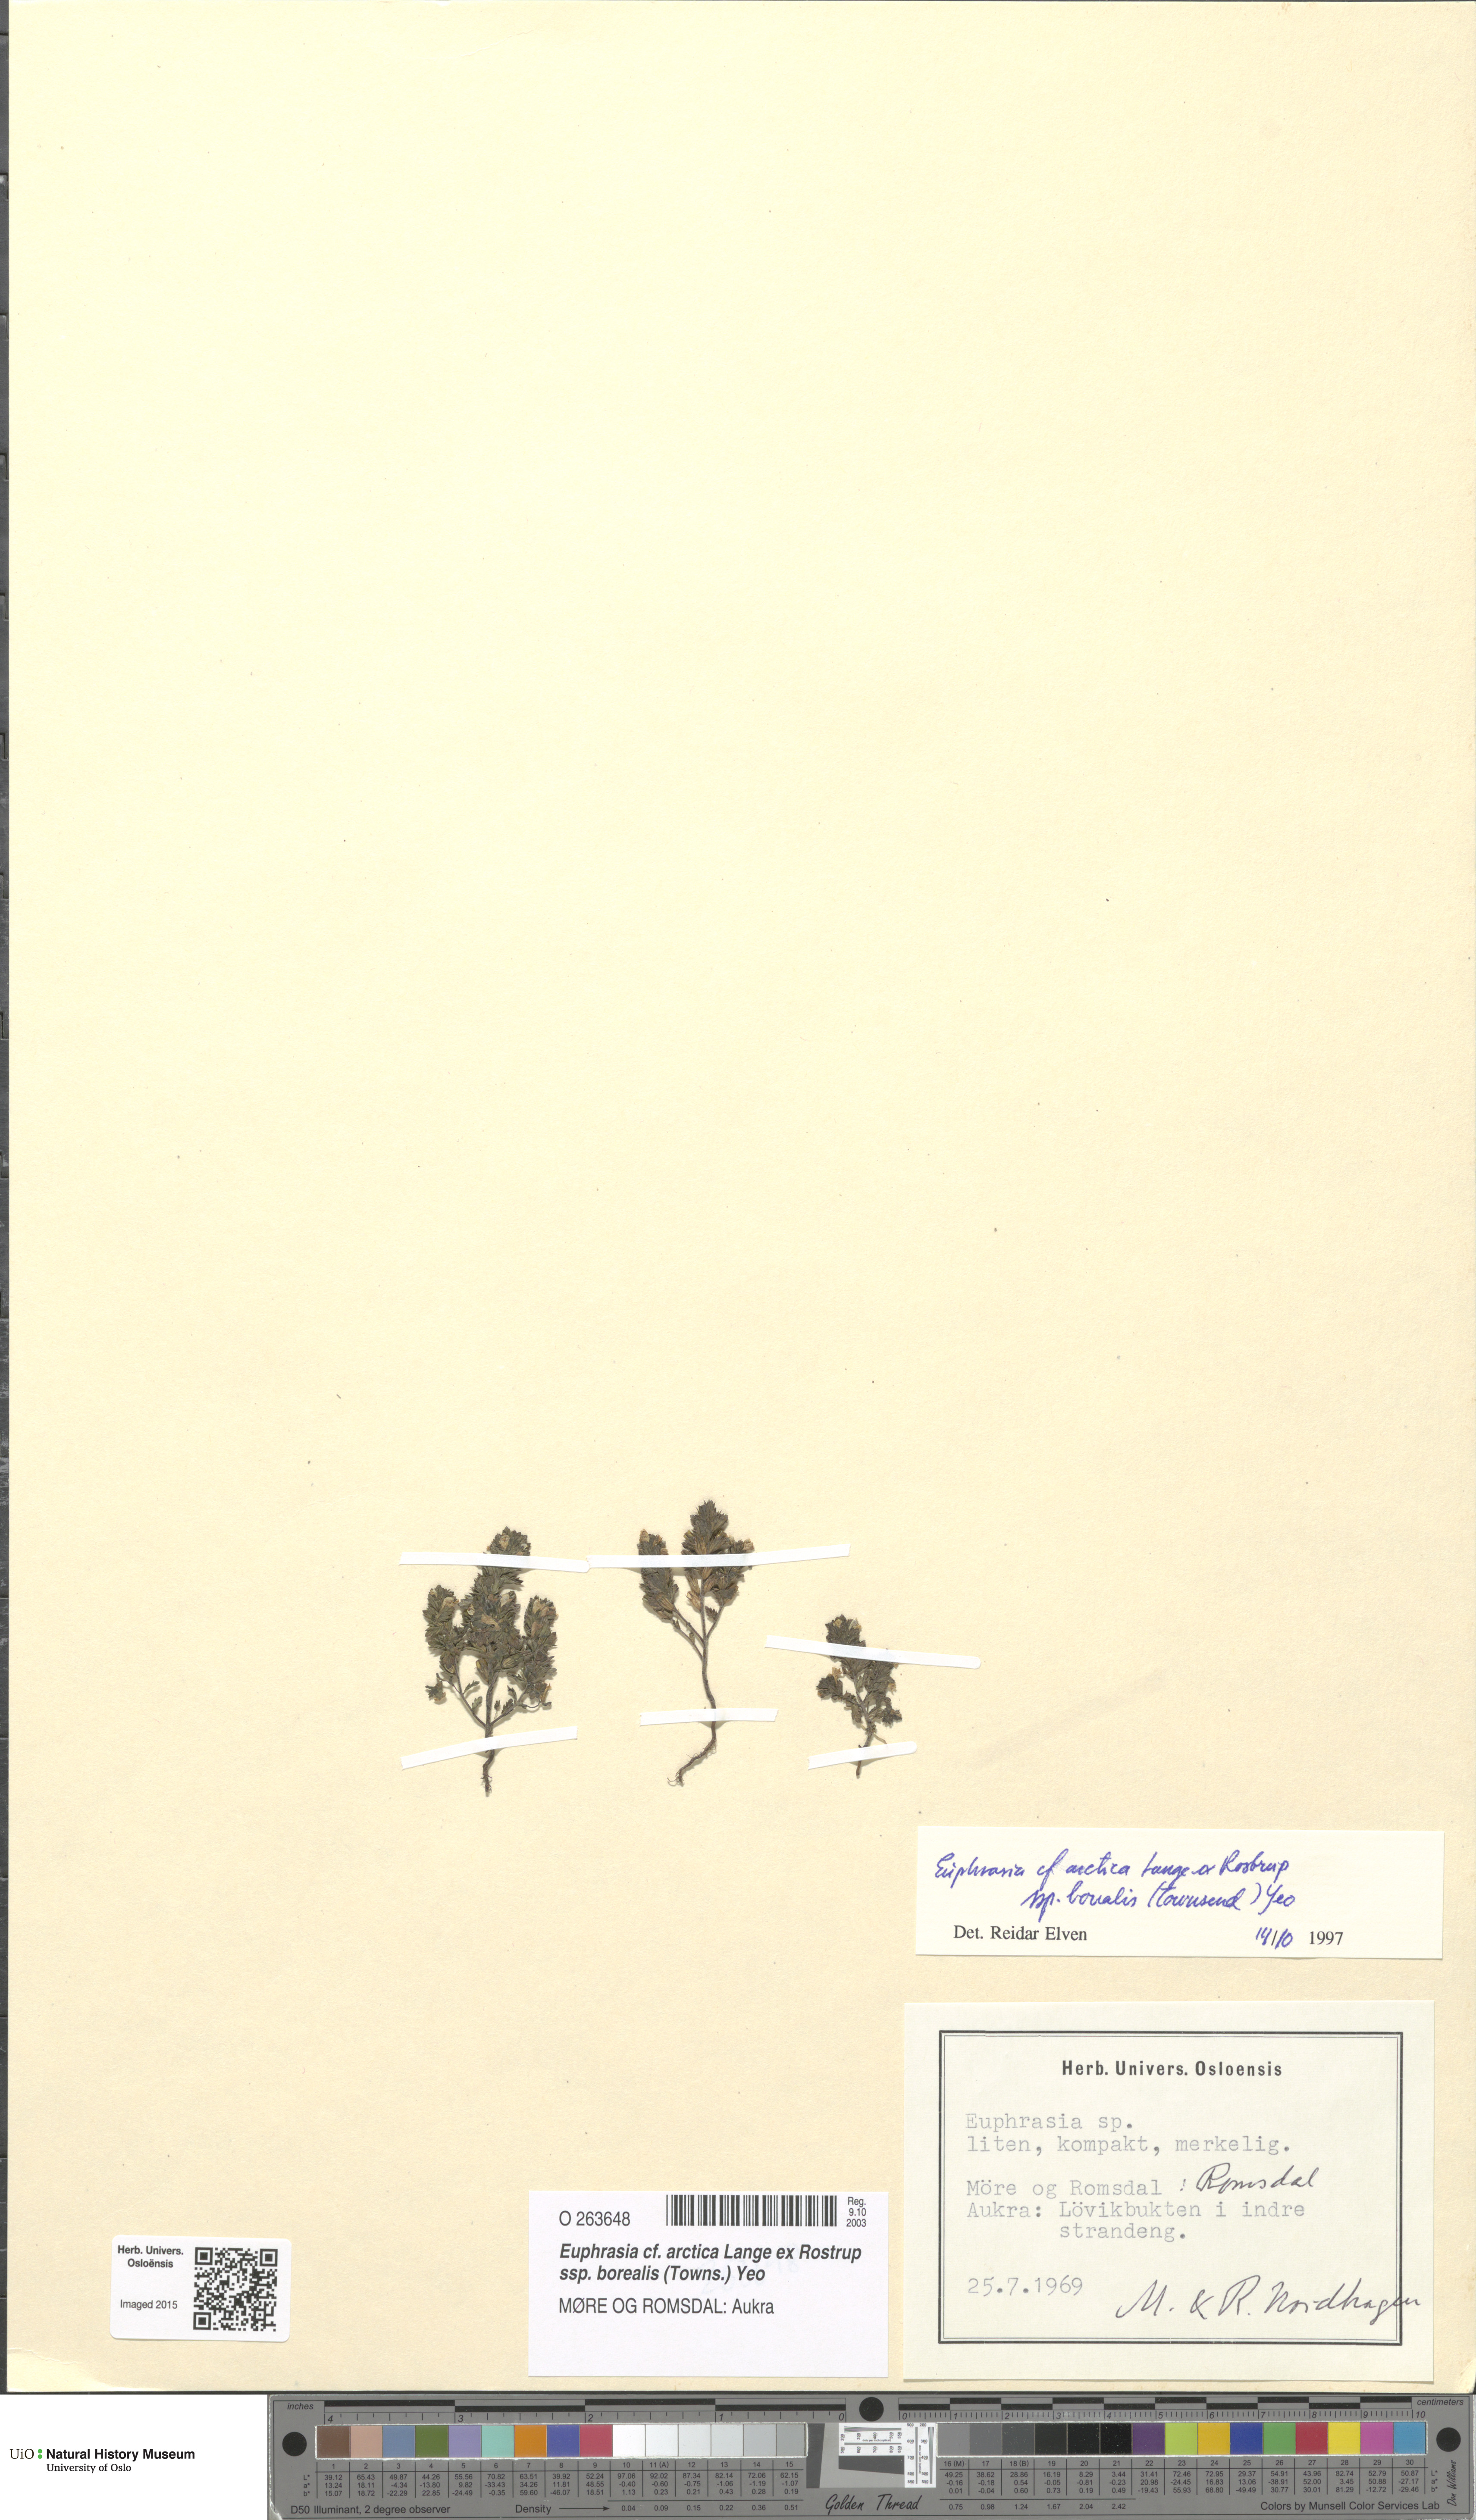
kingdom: Plantae
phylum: Tracheophyta
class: Magnoliopsida
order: Lamiales
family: Orobanchaceae
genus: Euphrasia
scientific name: Euphrasia arctica
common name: An eyebright
